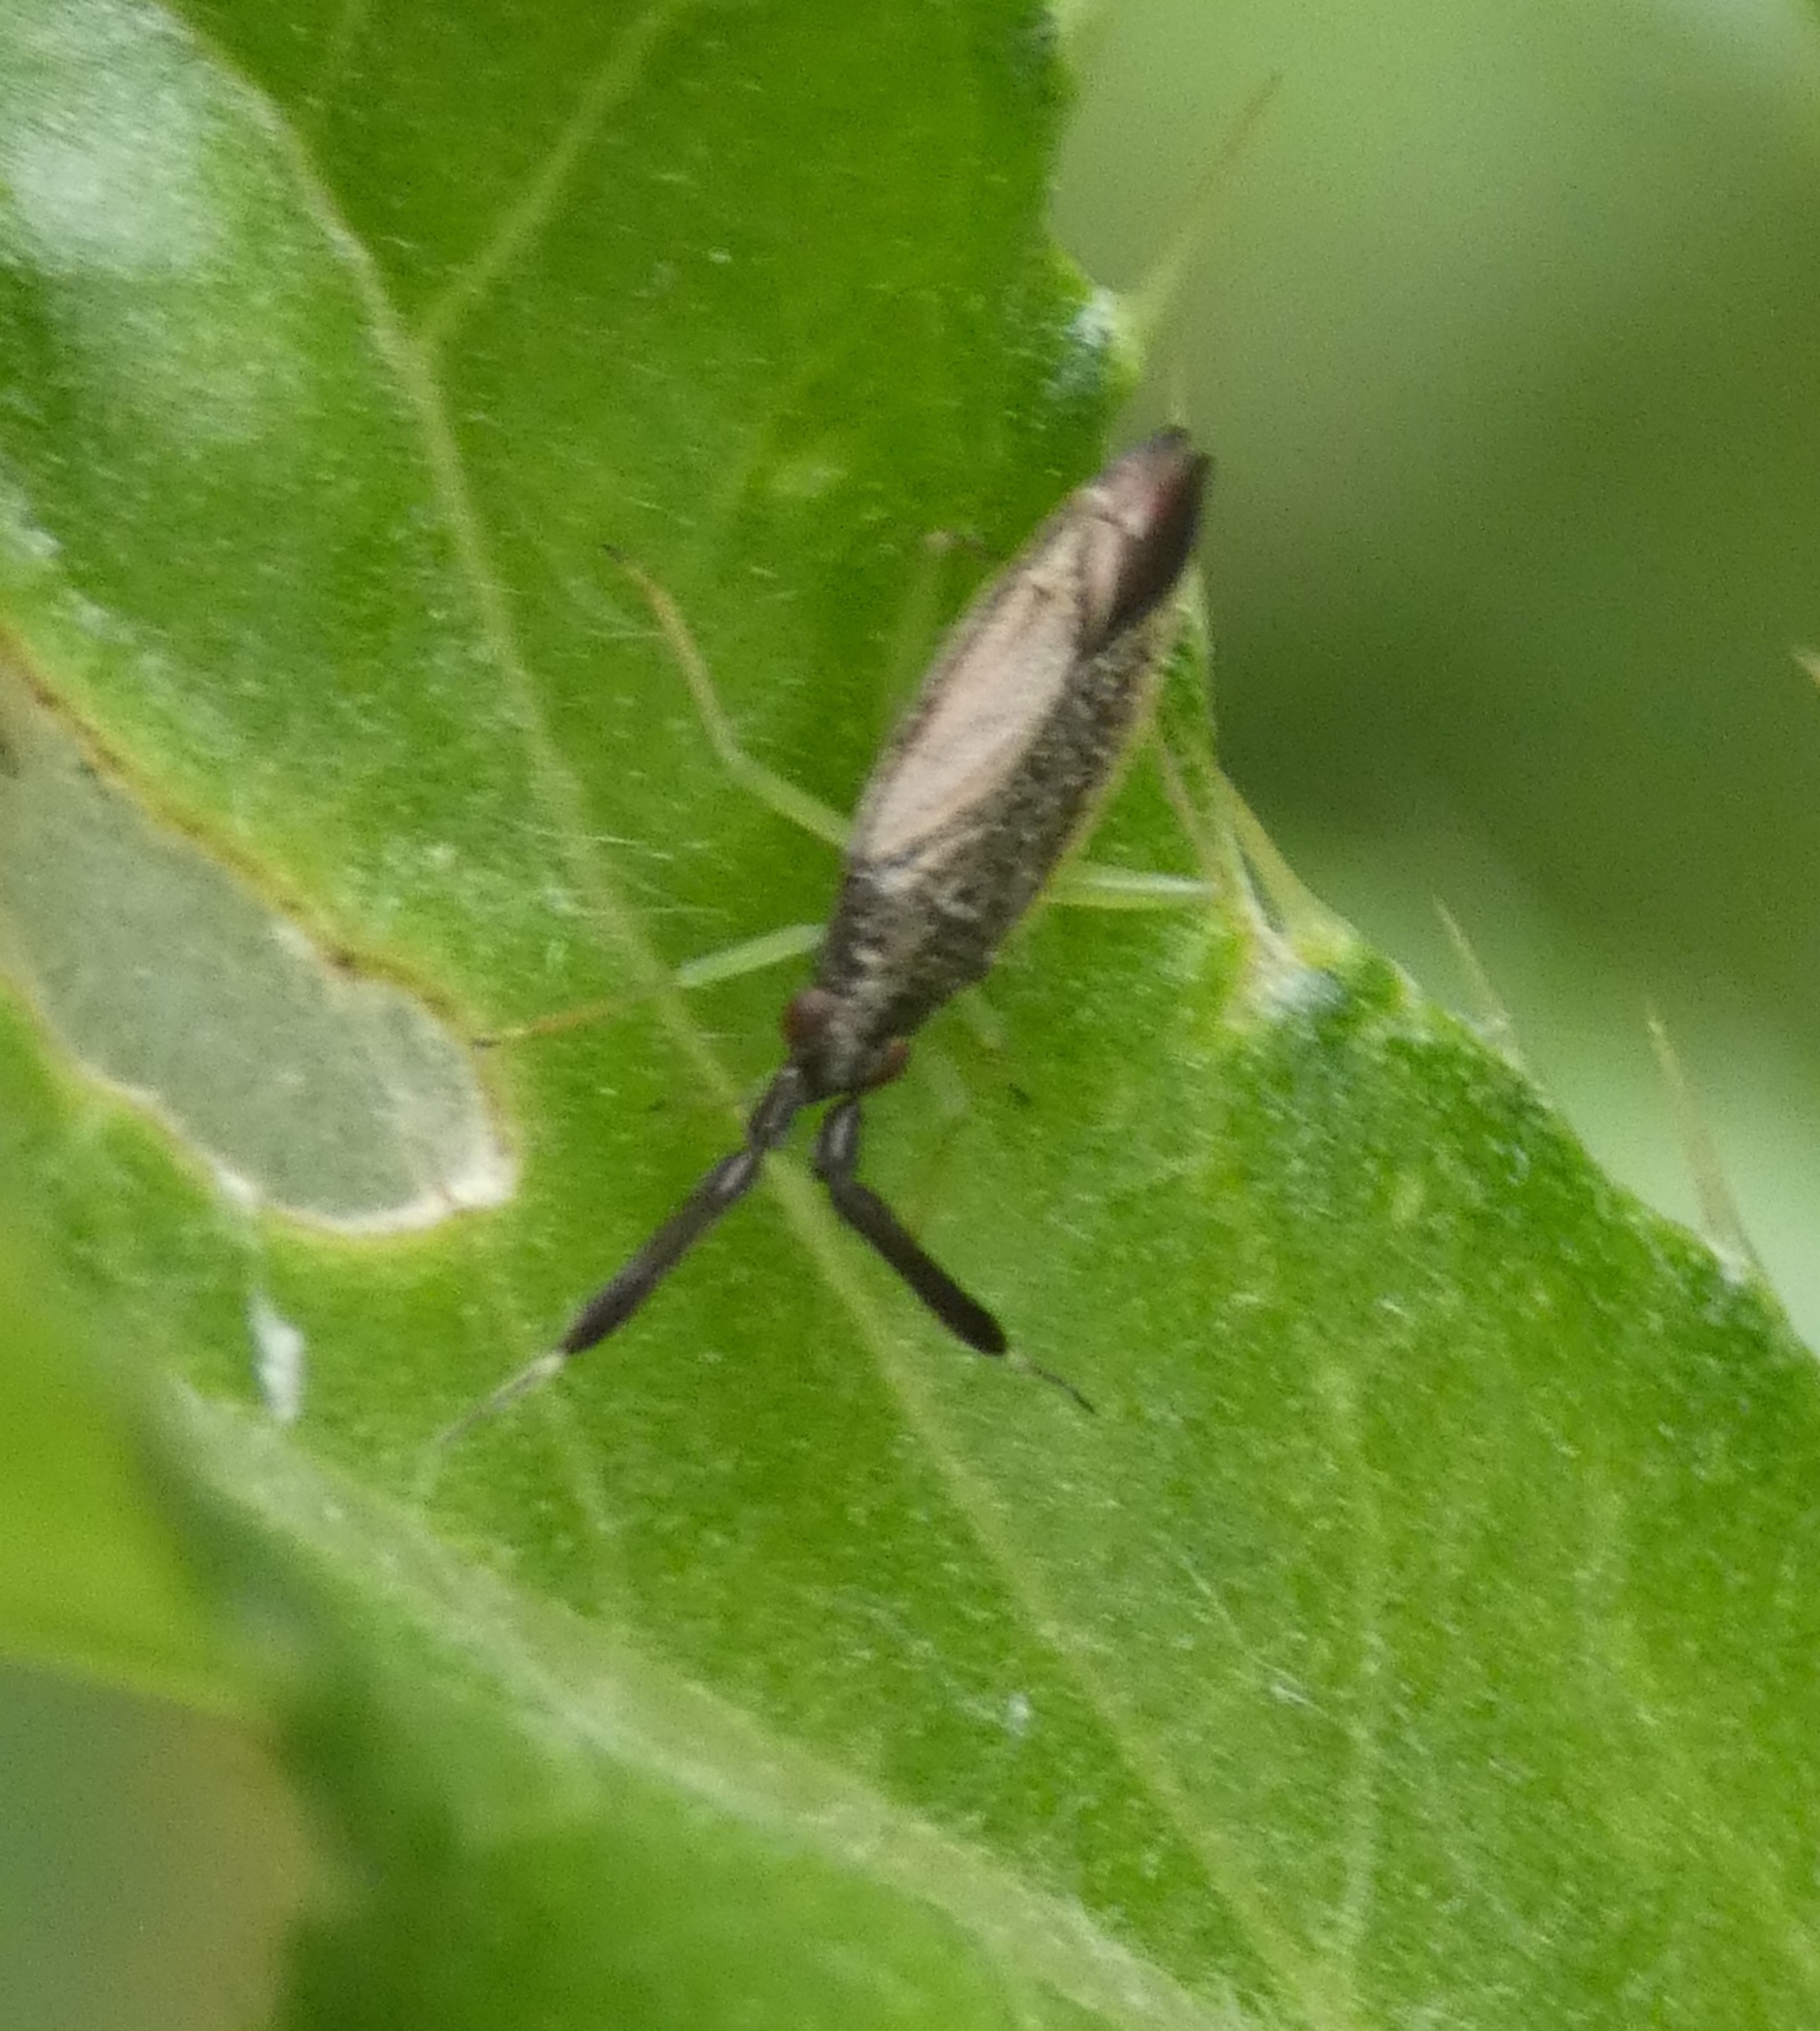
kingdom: Animalia
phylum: Arthropoda
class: Insecta
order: Hemiptera
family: Miridae
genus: Heterotoma
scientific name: Heterotoma planicornis
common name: Køllehornet blomstertæge
